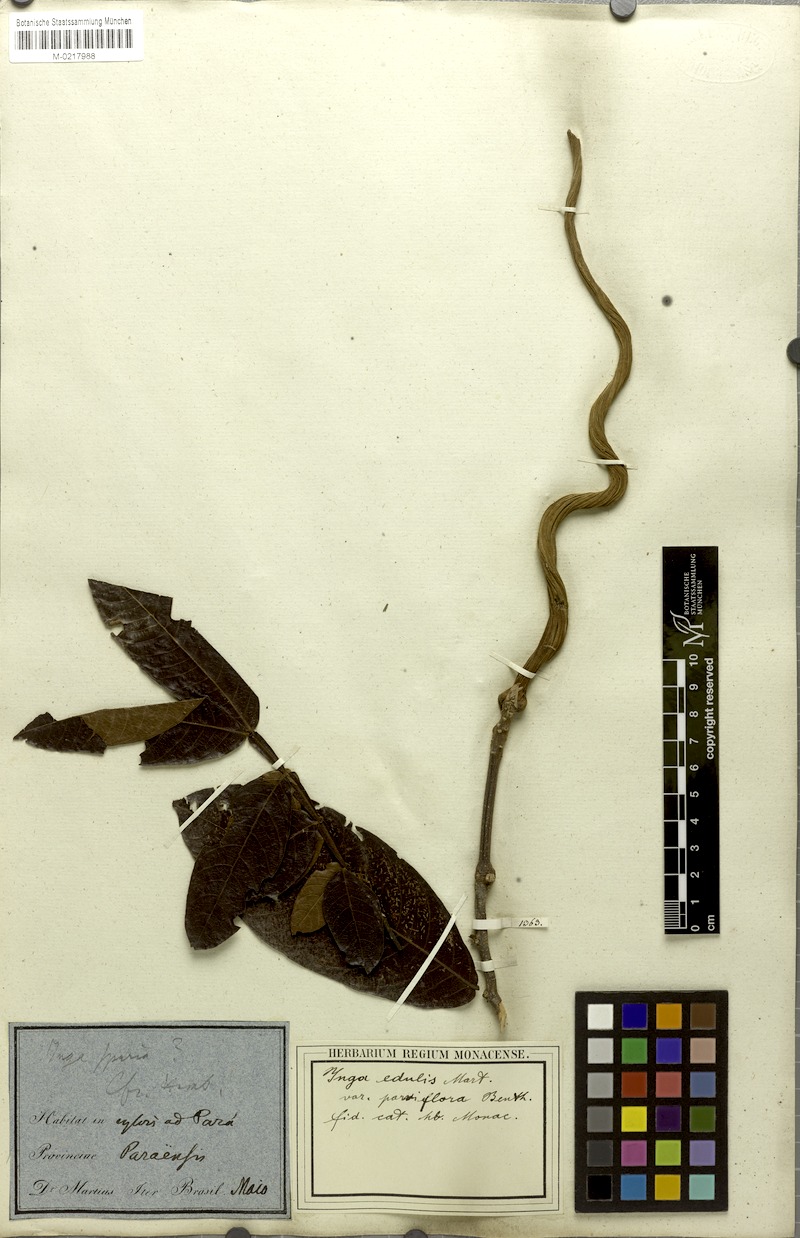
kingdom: Plantae
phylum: Tracheophyta
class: Magnoliopsida
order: Fabales
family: Fabaceae
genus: Inga
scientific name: Inga edulis
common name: Ice cream bean
